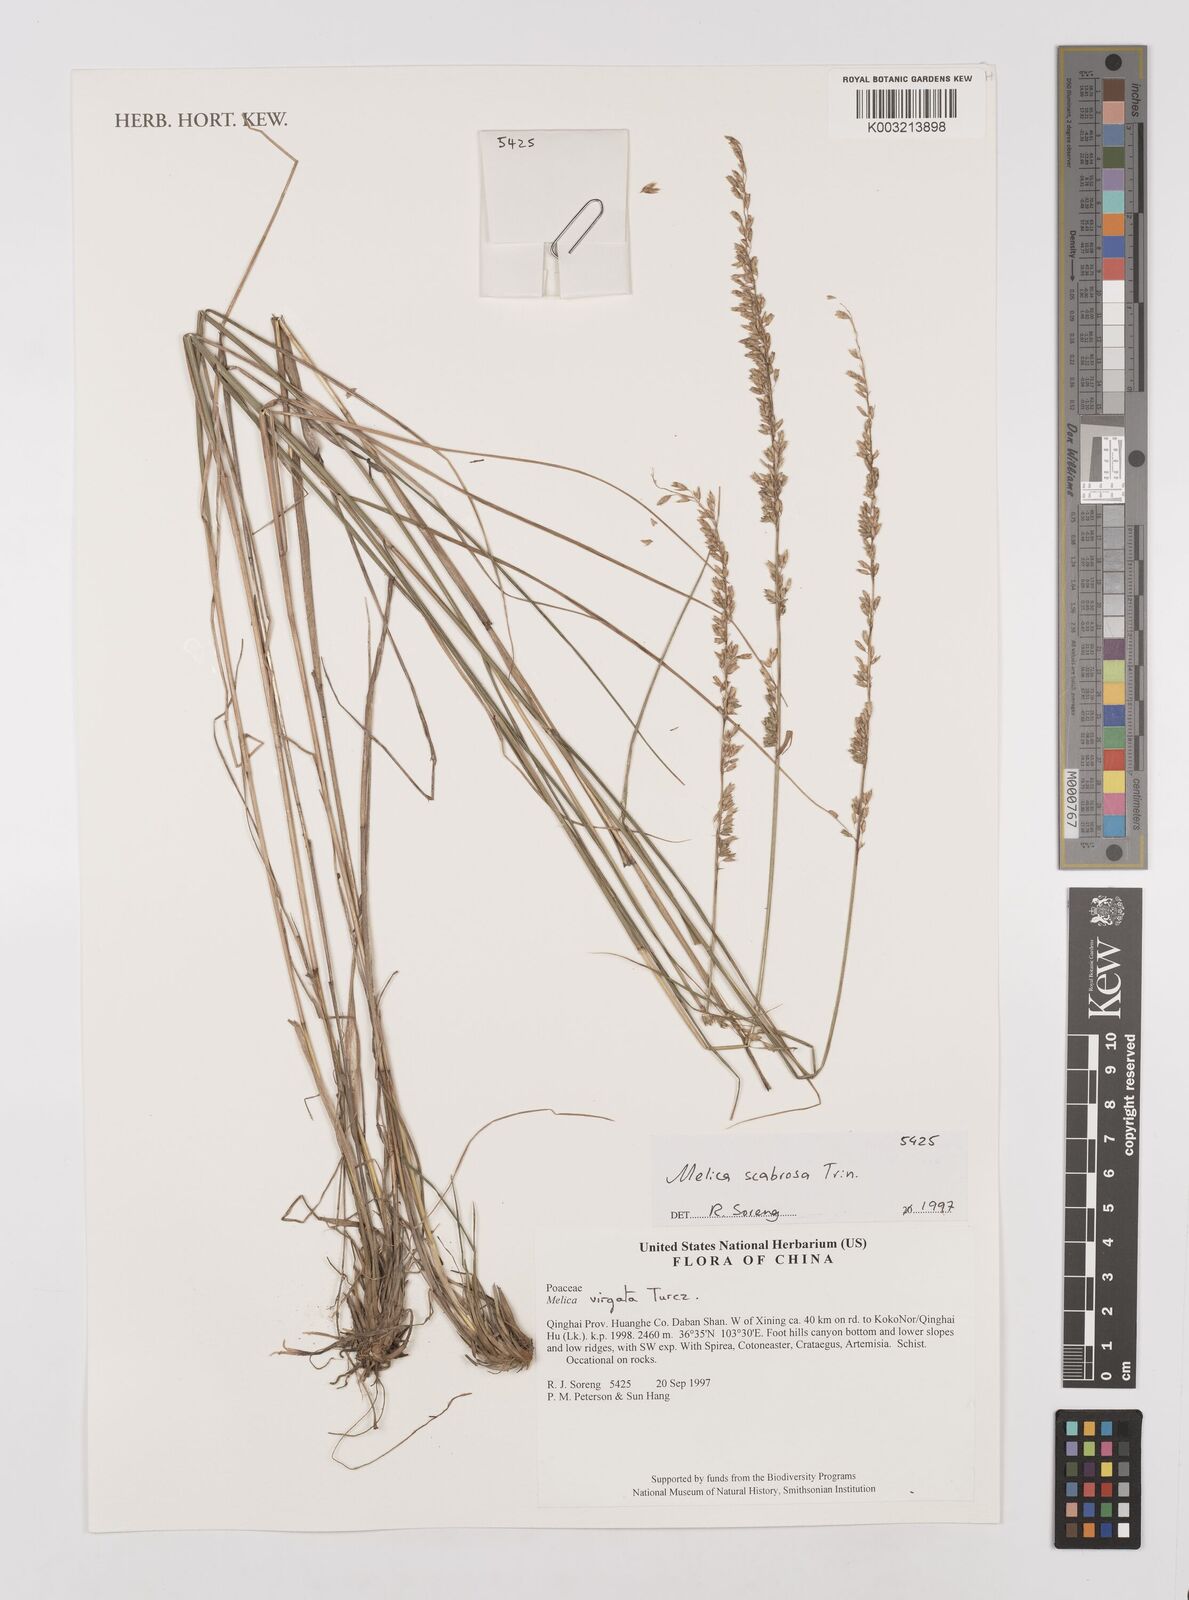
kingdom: Plantae
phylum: Tracheophyta
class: Liliopsida
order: Poales
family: Poaceae
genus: Melica
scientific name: Melica scabrosa
